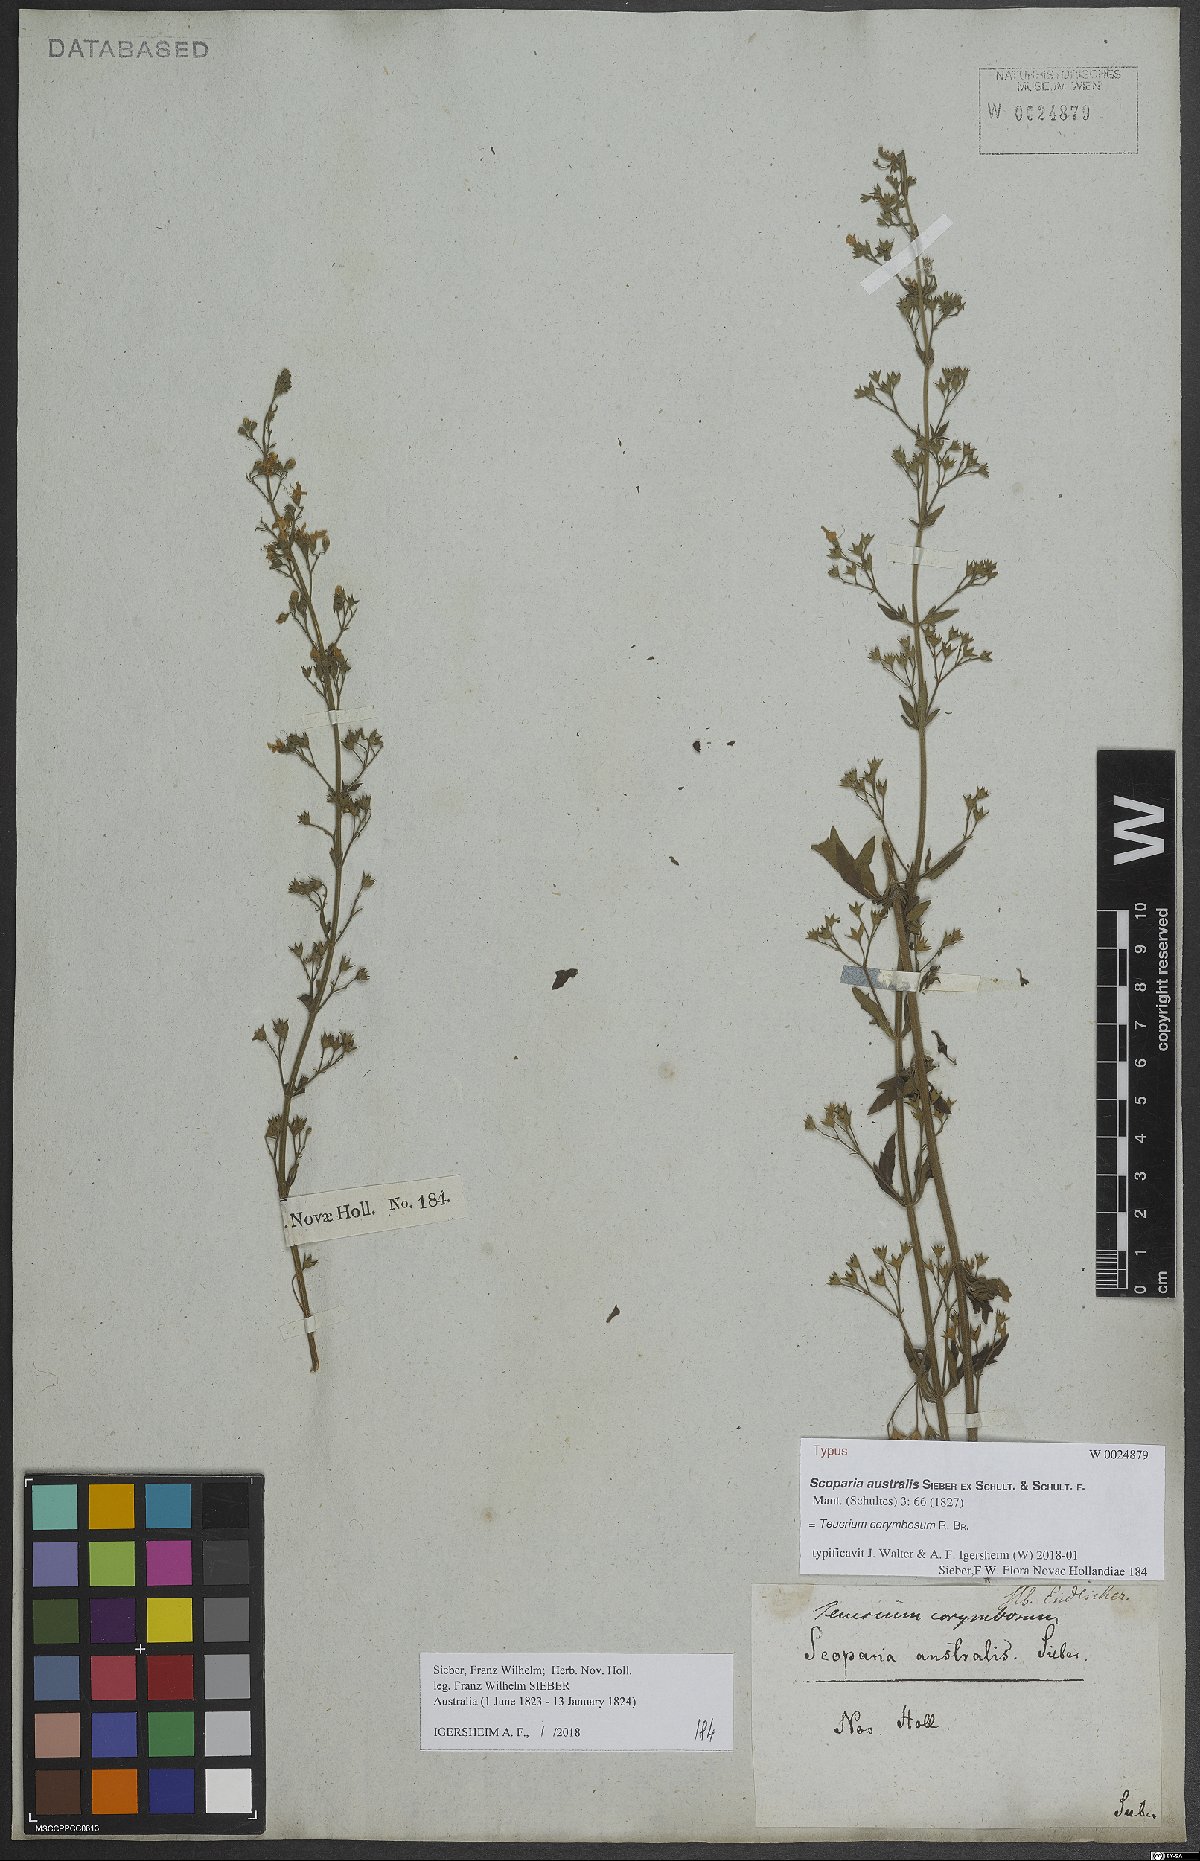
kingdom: Plantae
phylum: Tracheophyta
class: Magnoliopsida
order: Lamiales
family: Lamiaceae
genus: Teucrium
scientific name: Teucrium corymbosum
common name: Forest germander
